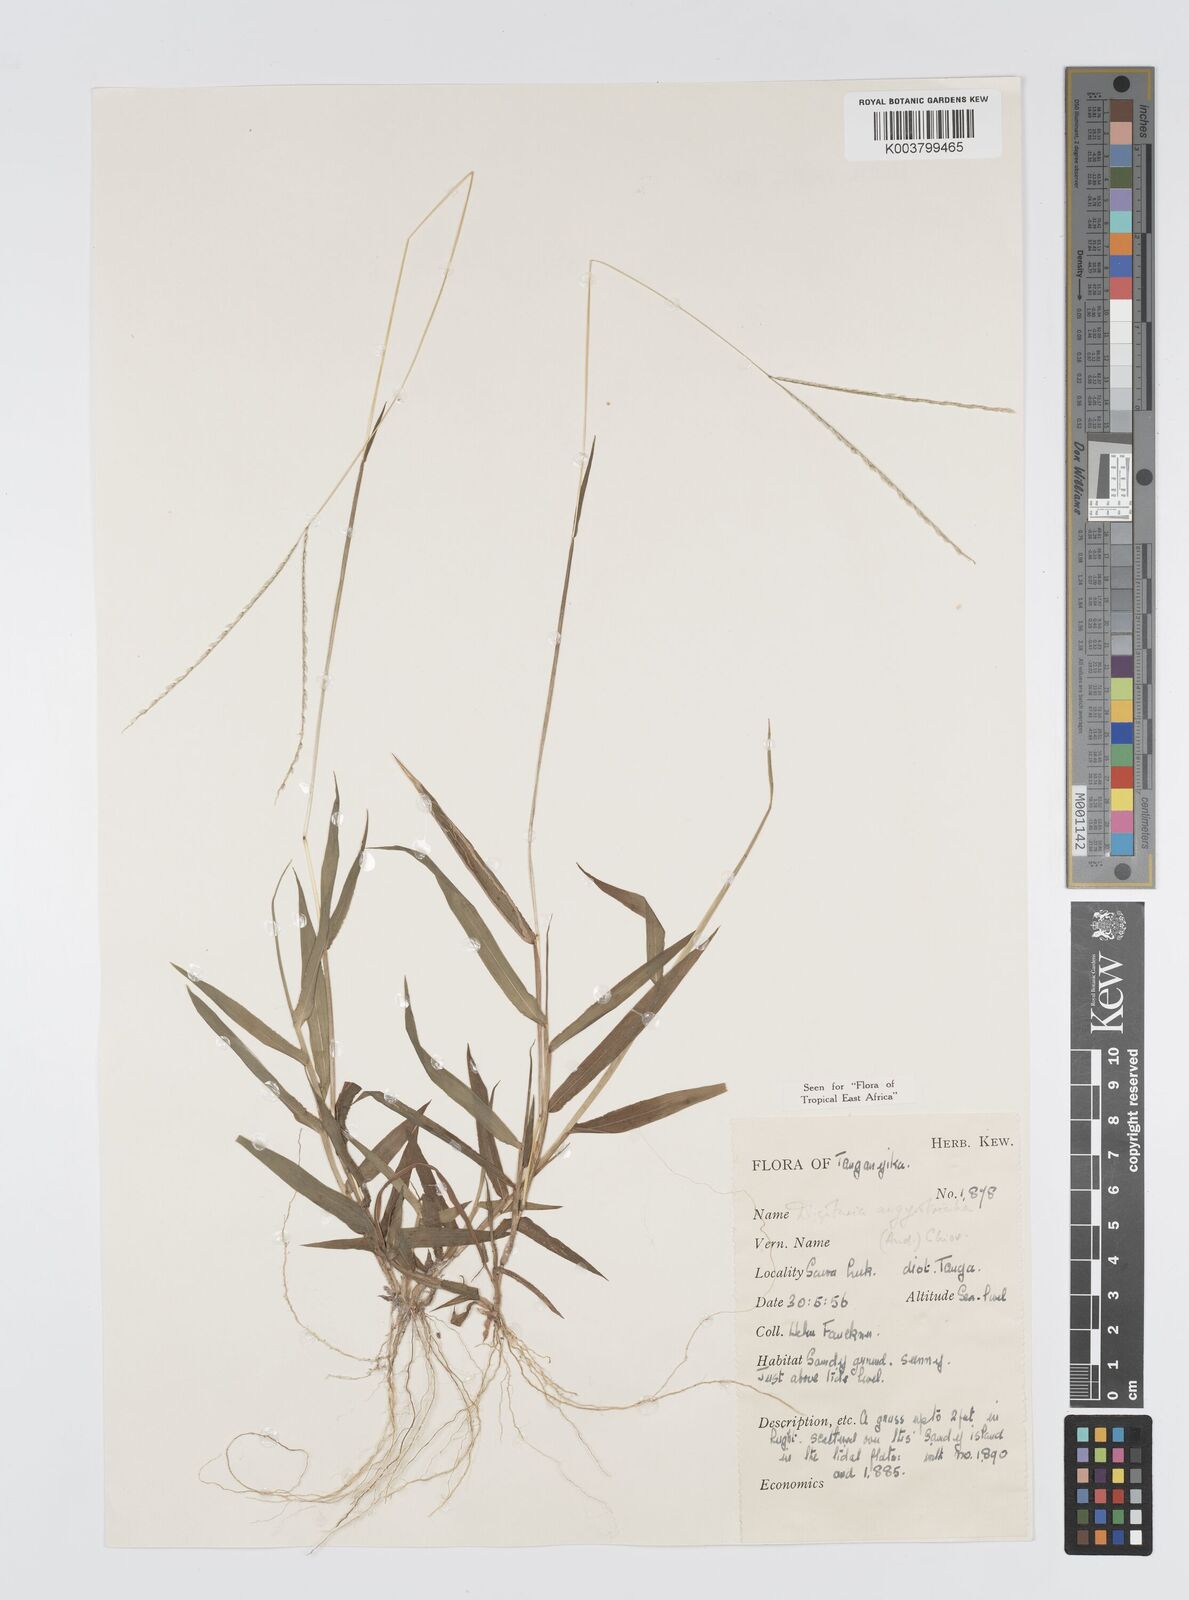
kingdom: Plantae
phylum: Tracheophyta
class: Liliopsida
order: Poales
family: Poaceae
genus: Digitaria
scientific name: Digitaria argyrotricha
